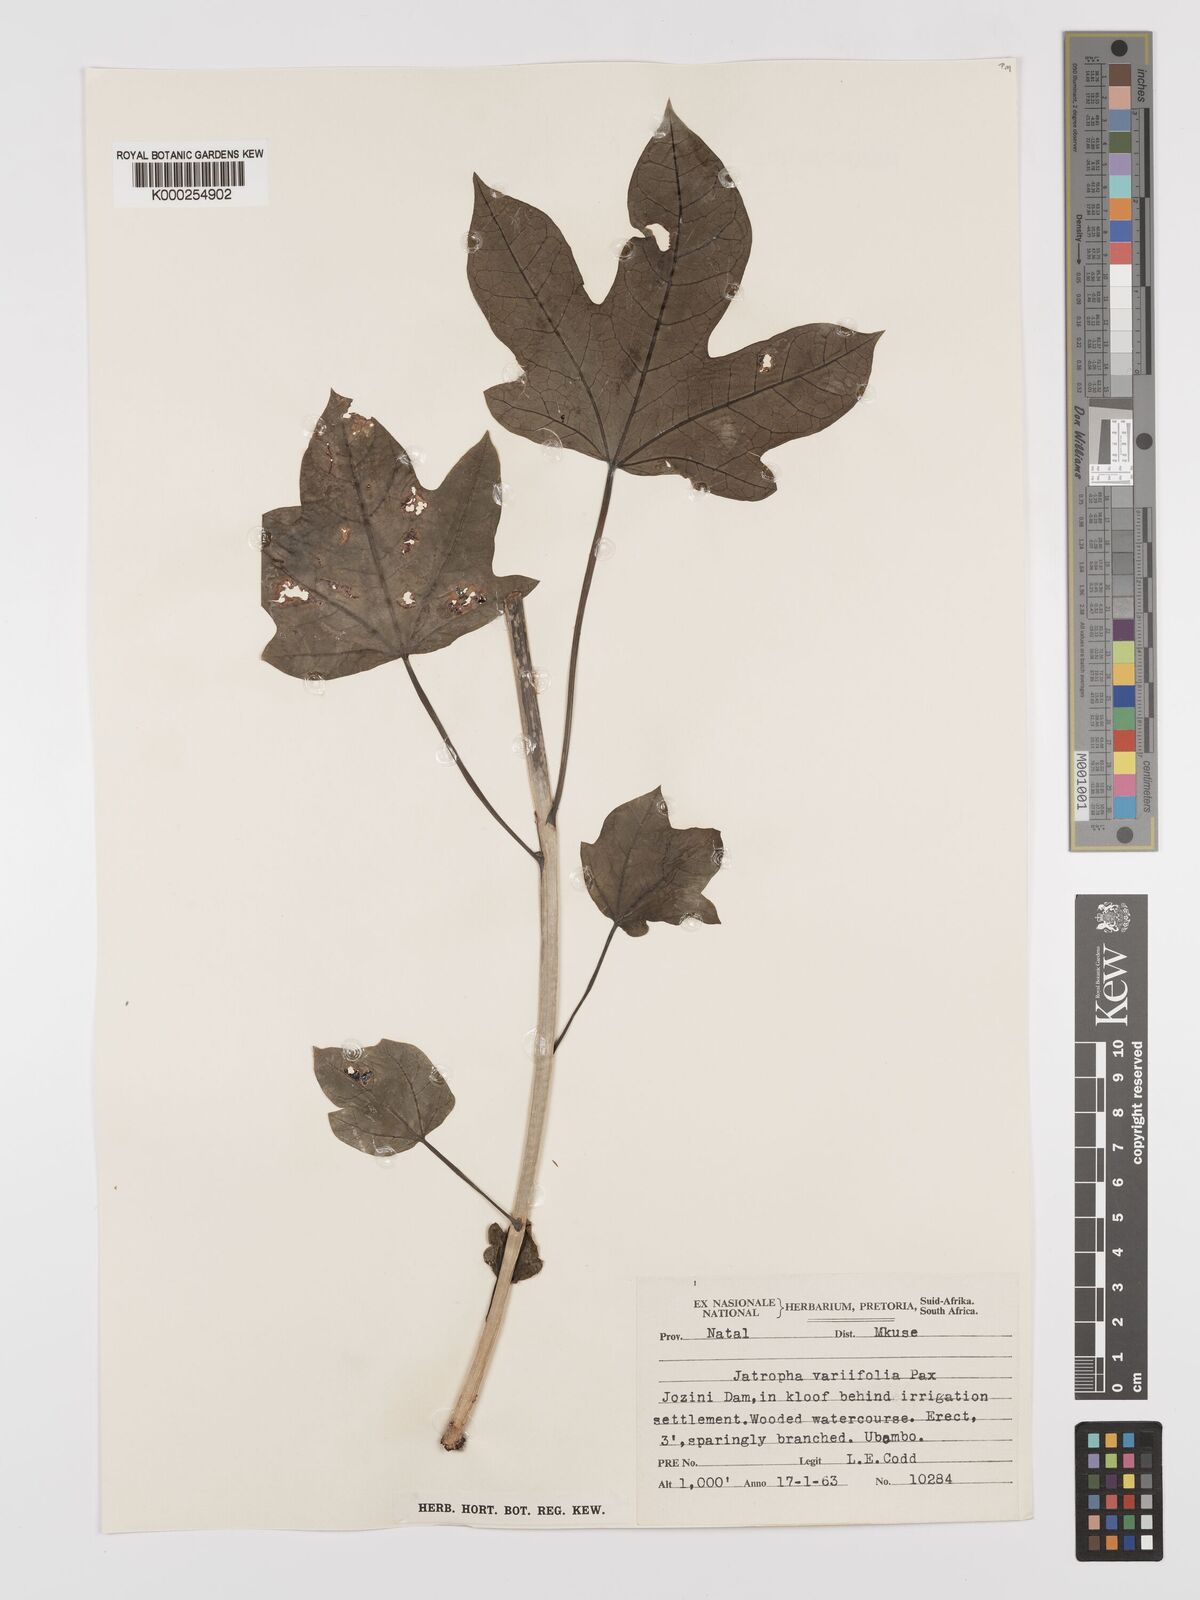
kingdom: Plantae
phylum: Tracheophyta
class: Magnoliopsida
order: Malpighiales
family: Euphorbiaceae
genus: Jatropha
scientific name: Jatropha variifolia
